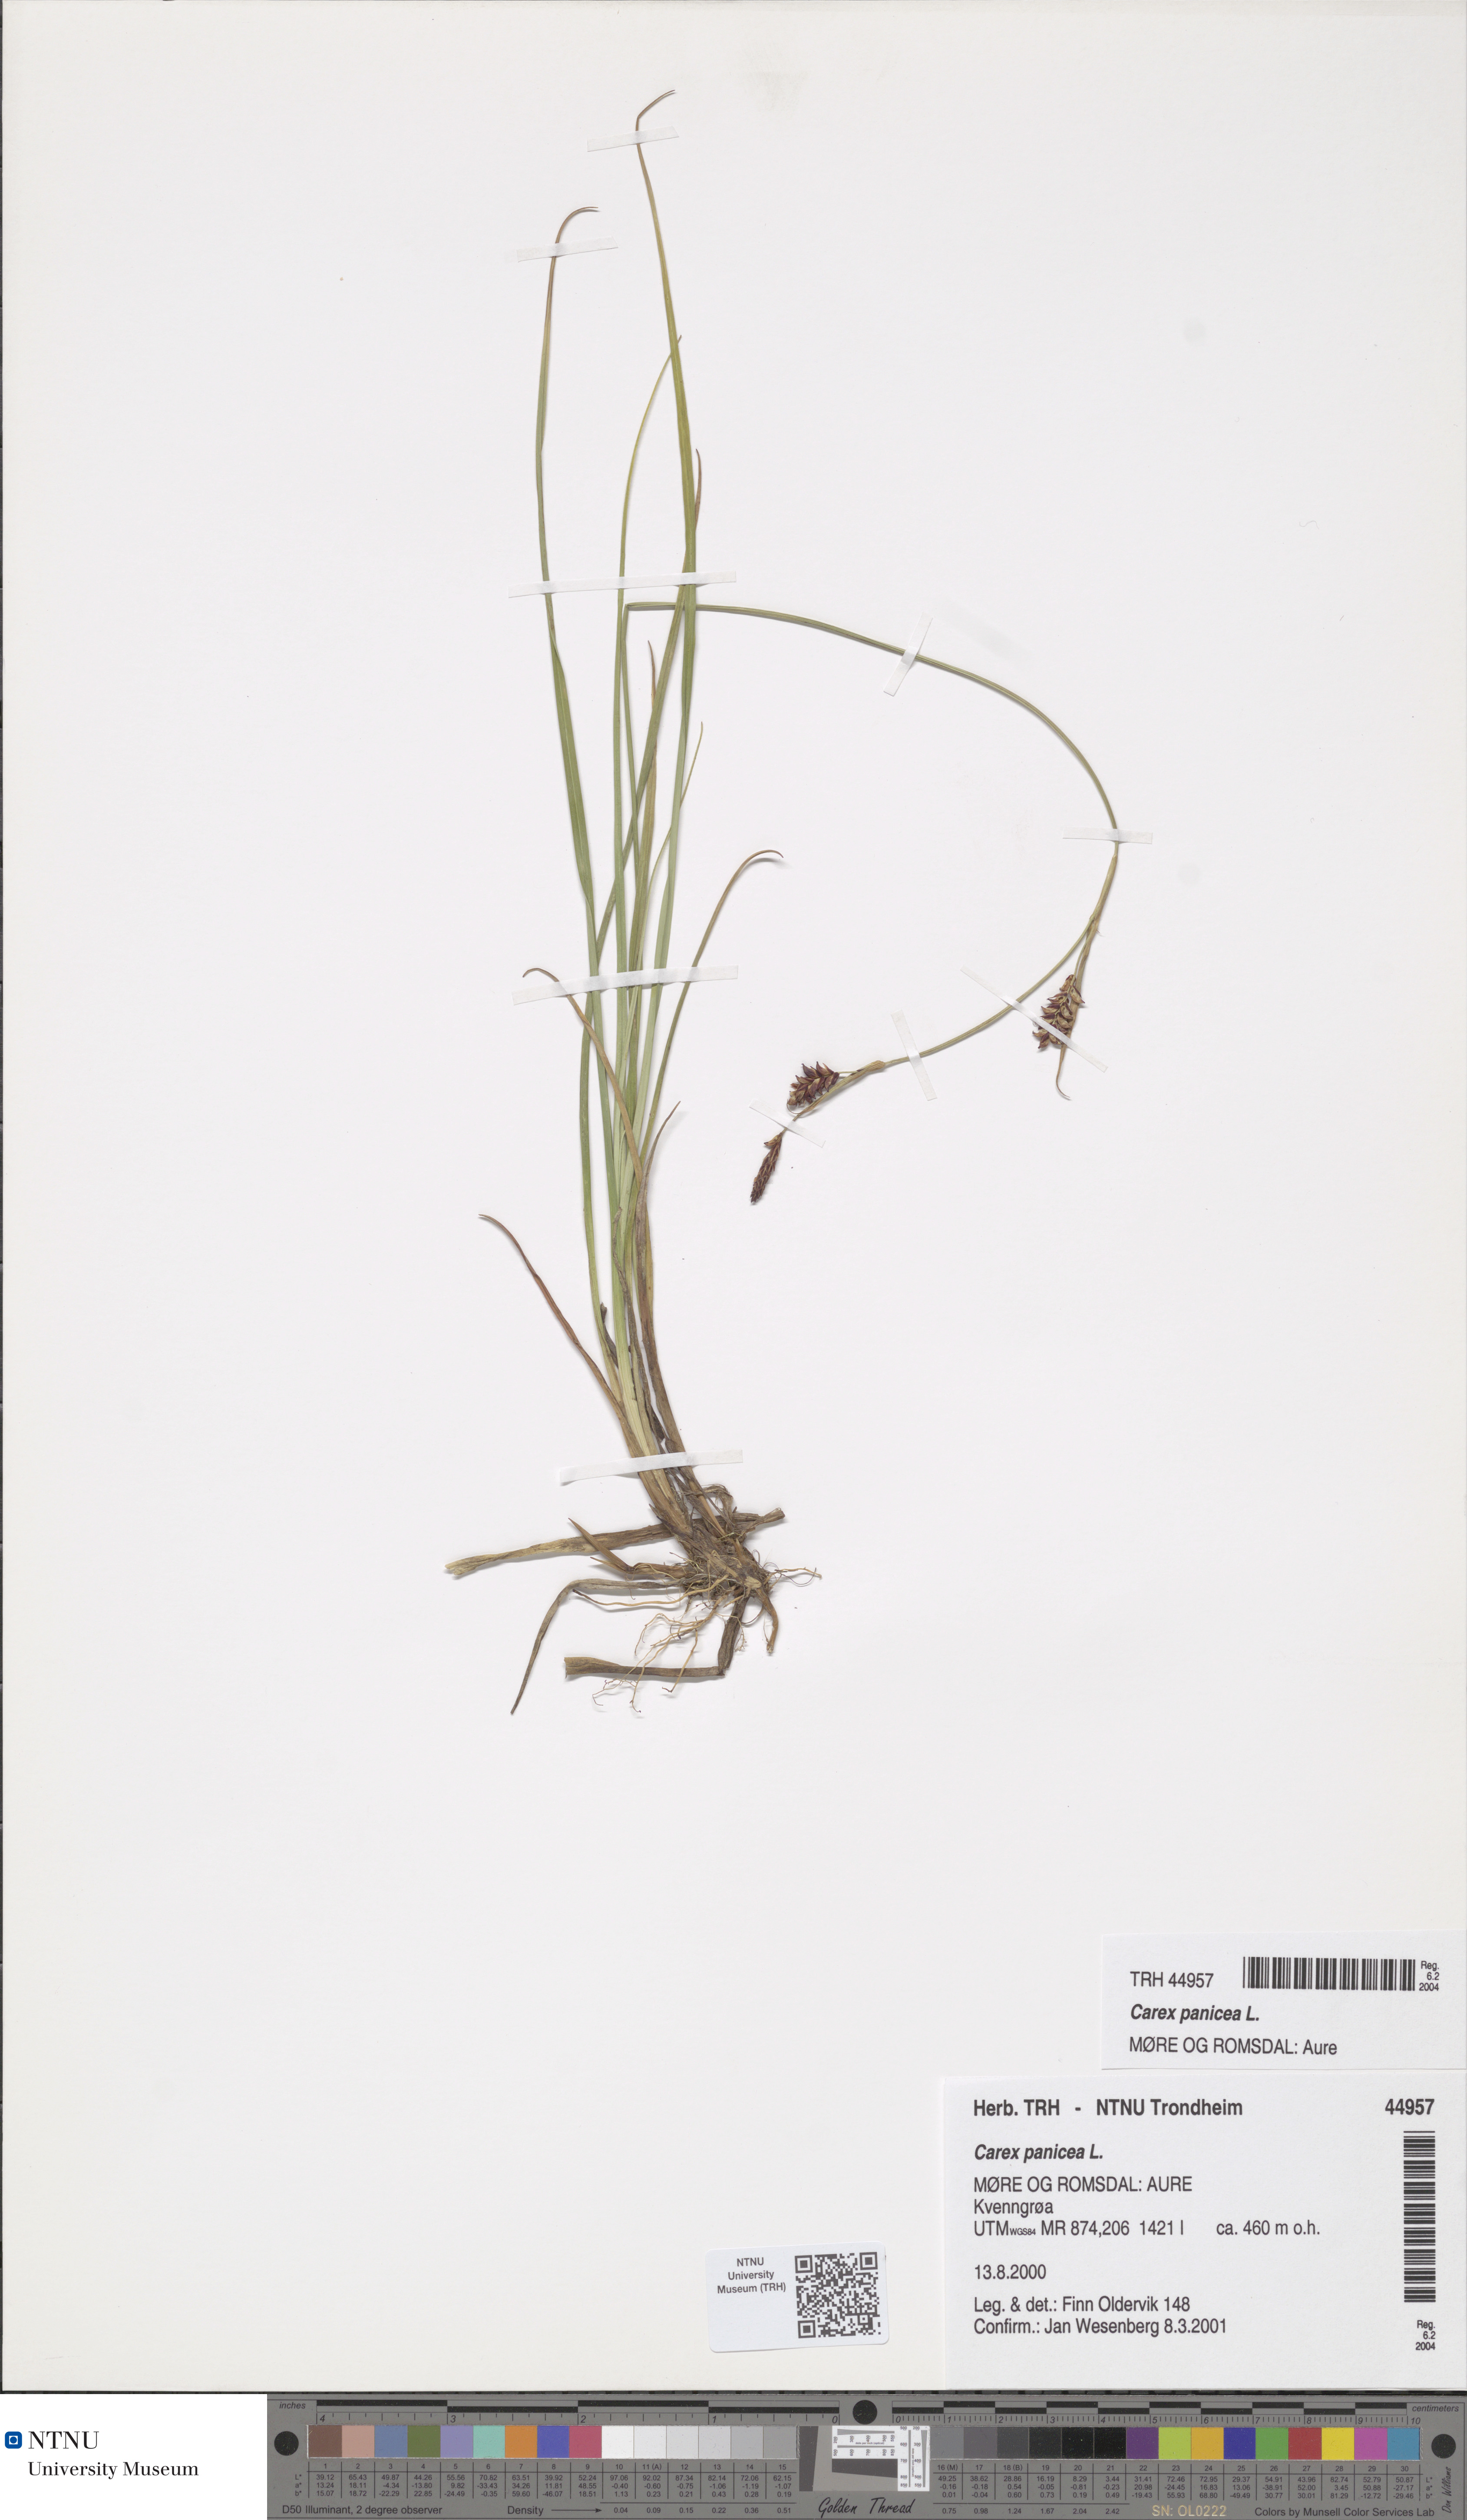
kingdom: Plantae
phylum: Tracheophyta
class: Liliopsida
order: Poales
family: Cyperaceae
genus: Carex
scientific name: Carex panicea
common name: Carnation sedge
